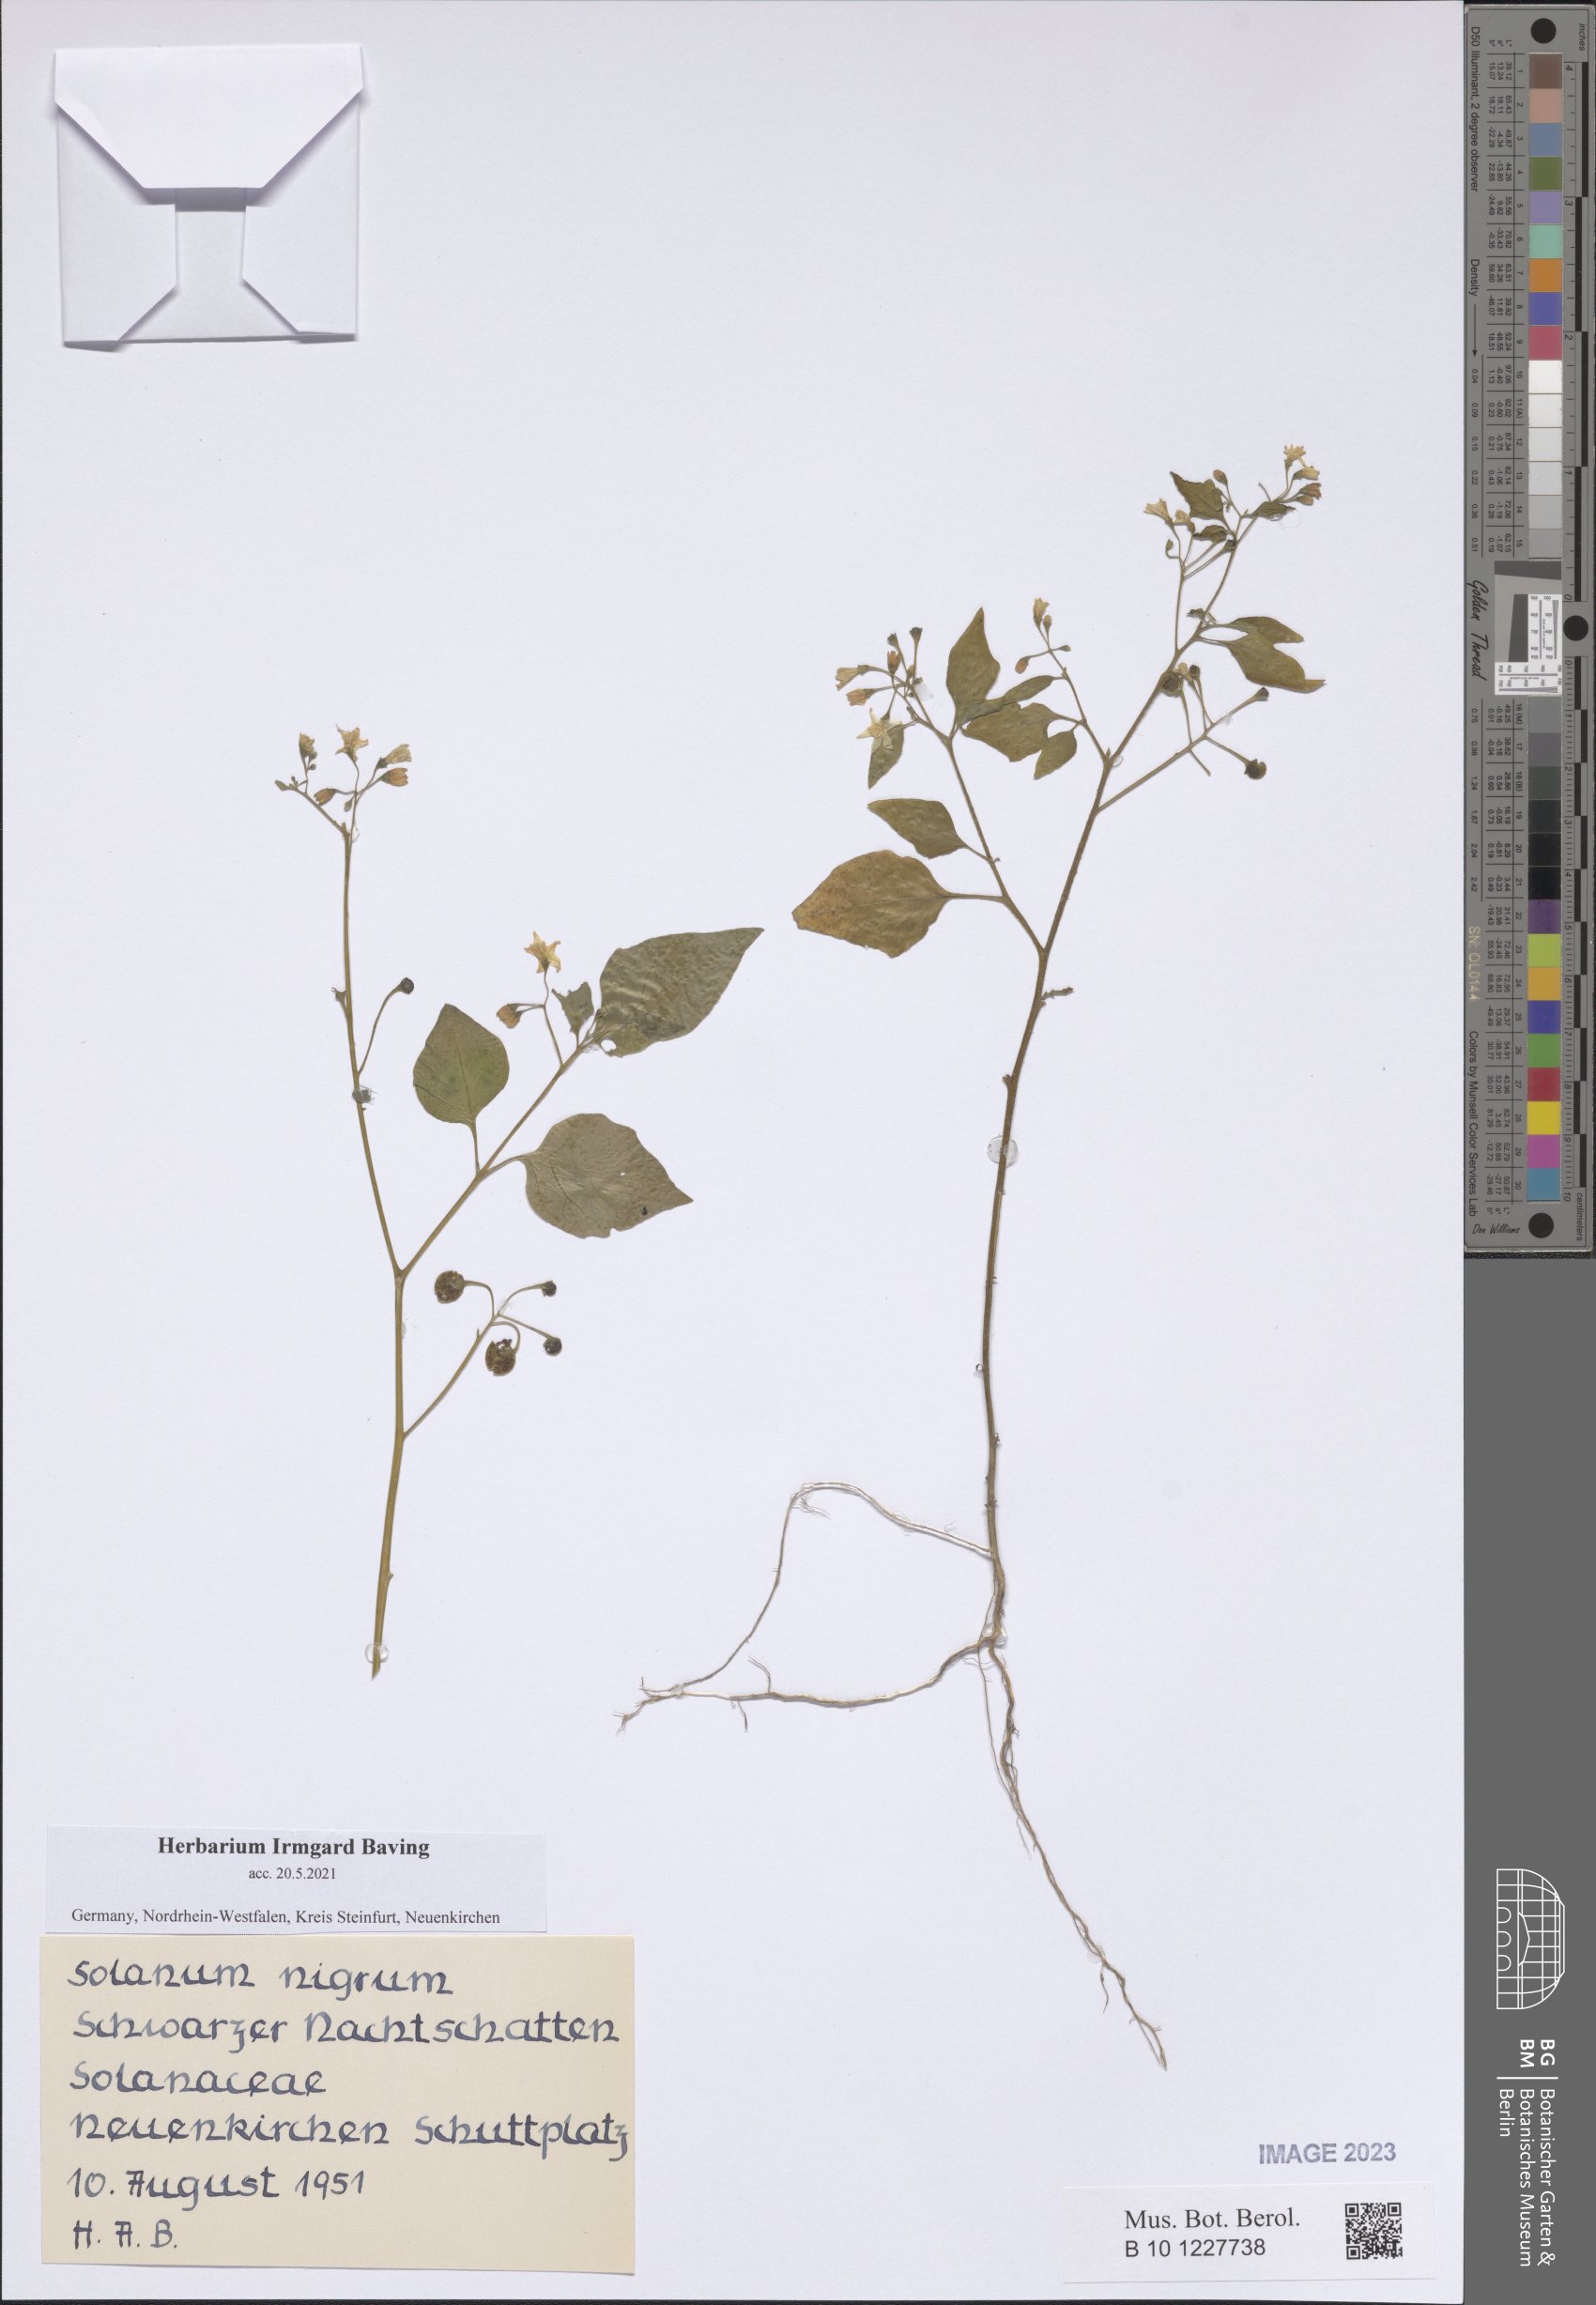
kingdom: Plantae
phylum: Tracheophyta
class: Magnoliopsida
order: Solanales
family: Solanaceae
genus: Solanum
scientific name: Solanum nigrum
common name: Black nightshade
